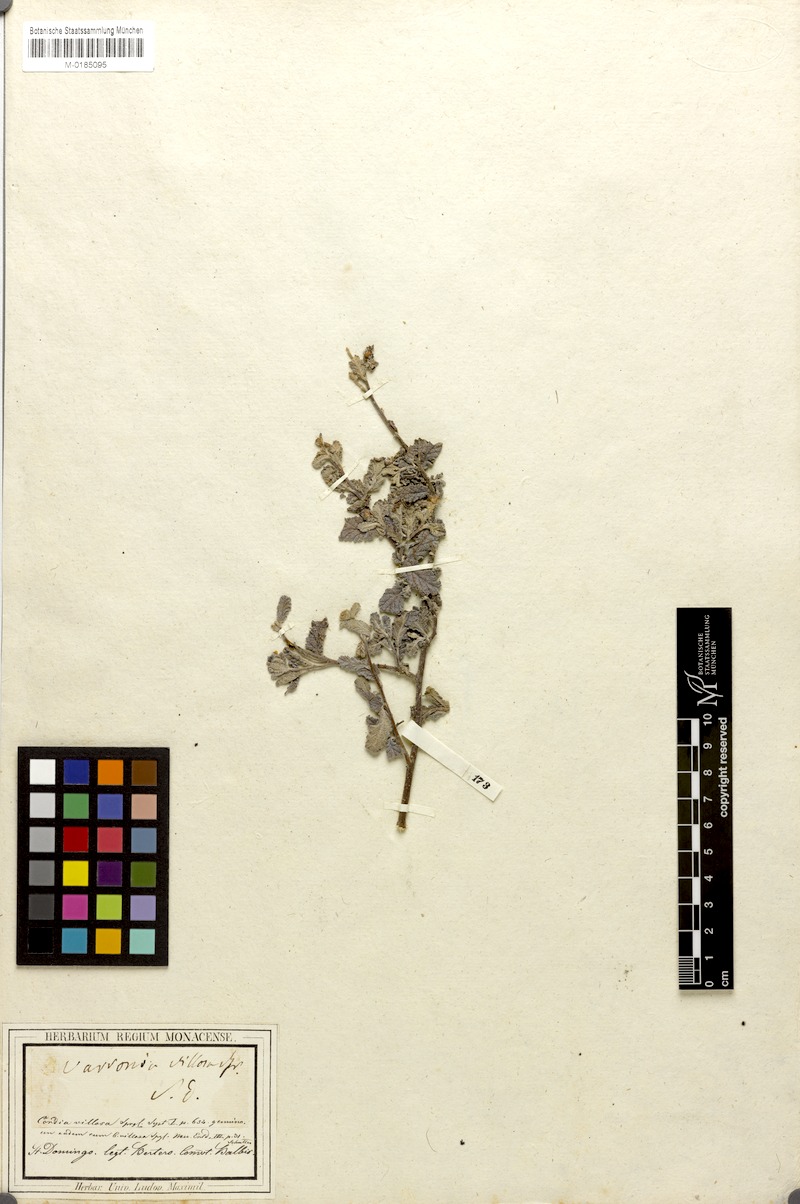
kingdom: Plantae
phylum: Tracheophyta
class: Magnoliopsida
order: Boraginales
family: Cordiaceae
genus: Varronia
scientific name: Varronia exarata
